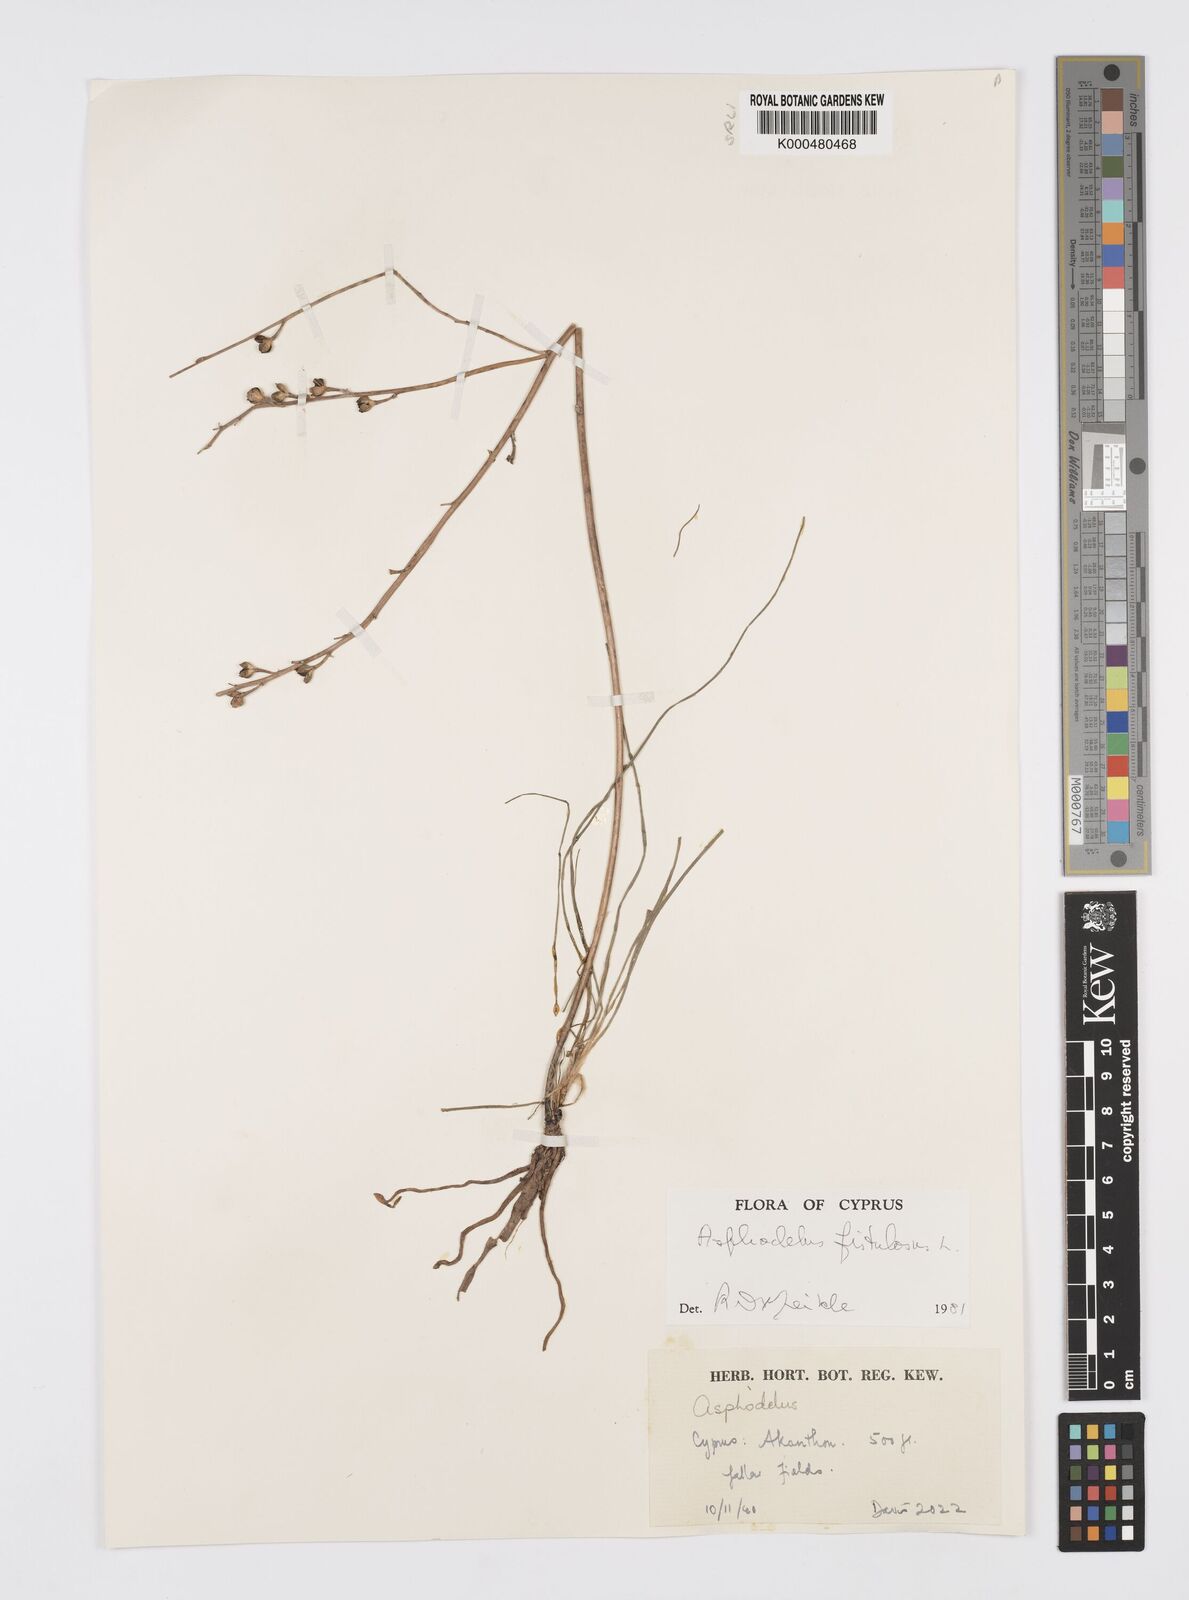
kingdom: Plantae
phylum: Tracheophyta
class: Liliopsida
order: Asparagales
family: Asphodelaceae
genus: Asphodelus
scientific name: Asphodelus fistulosus
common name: Onionweed
